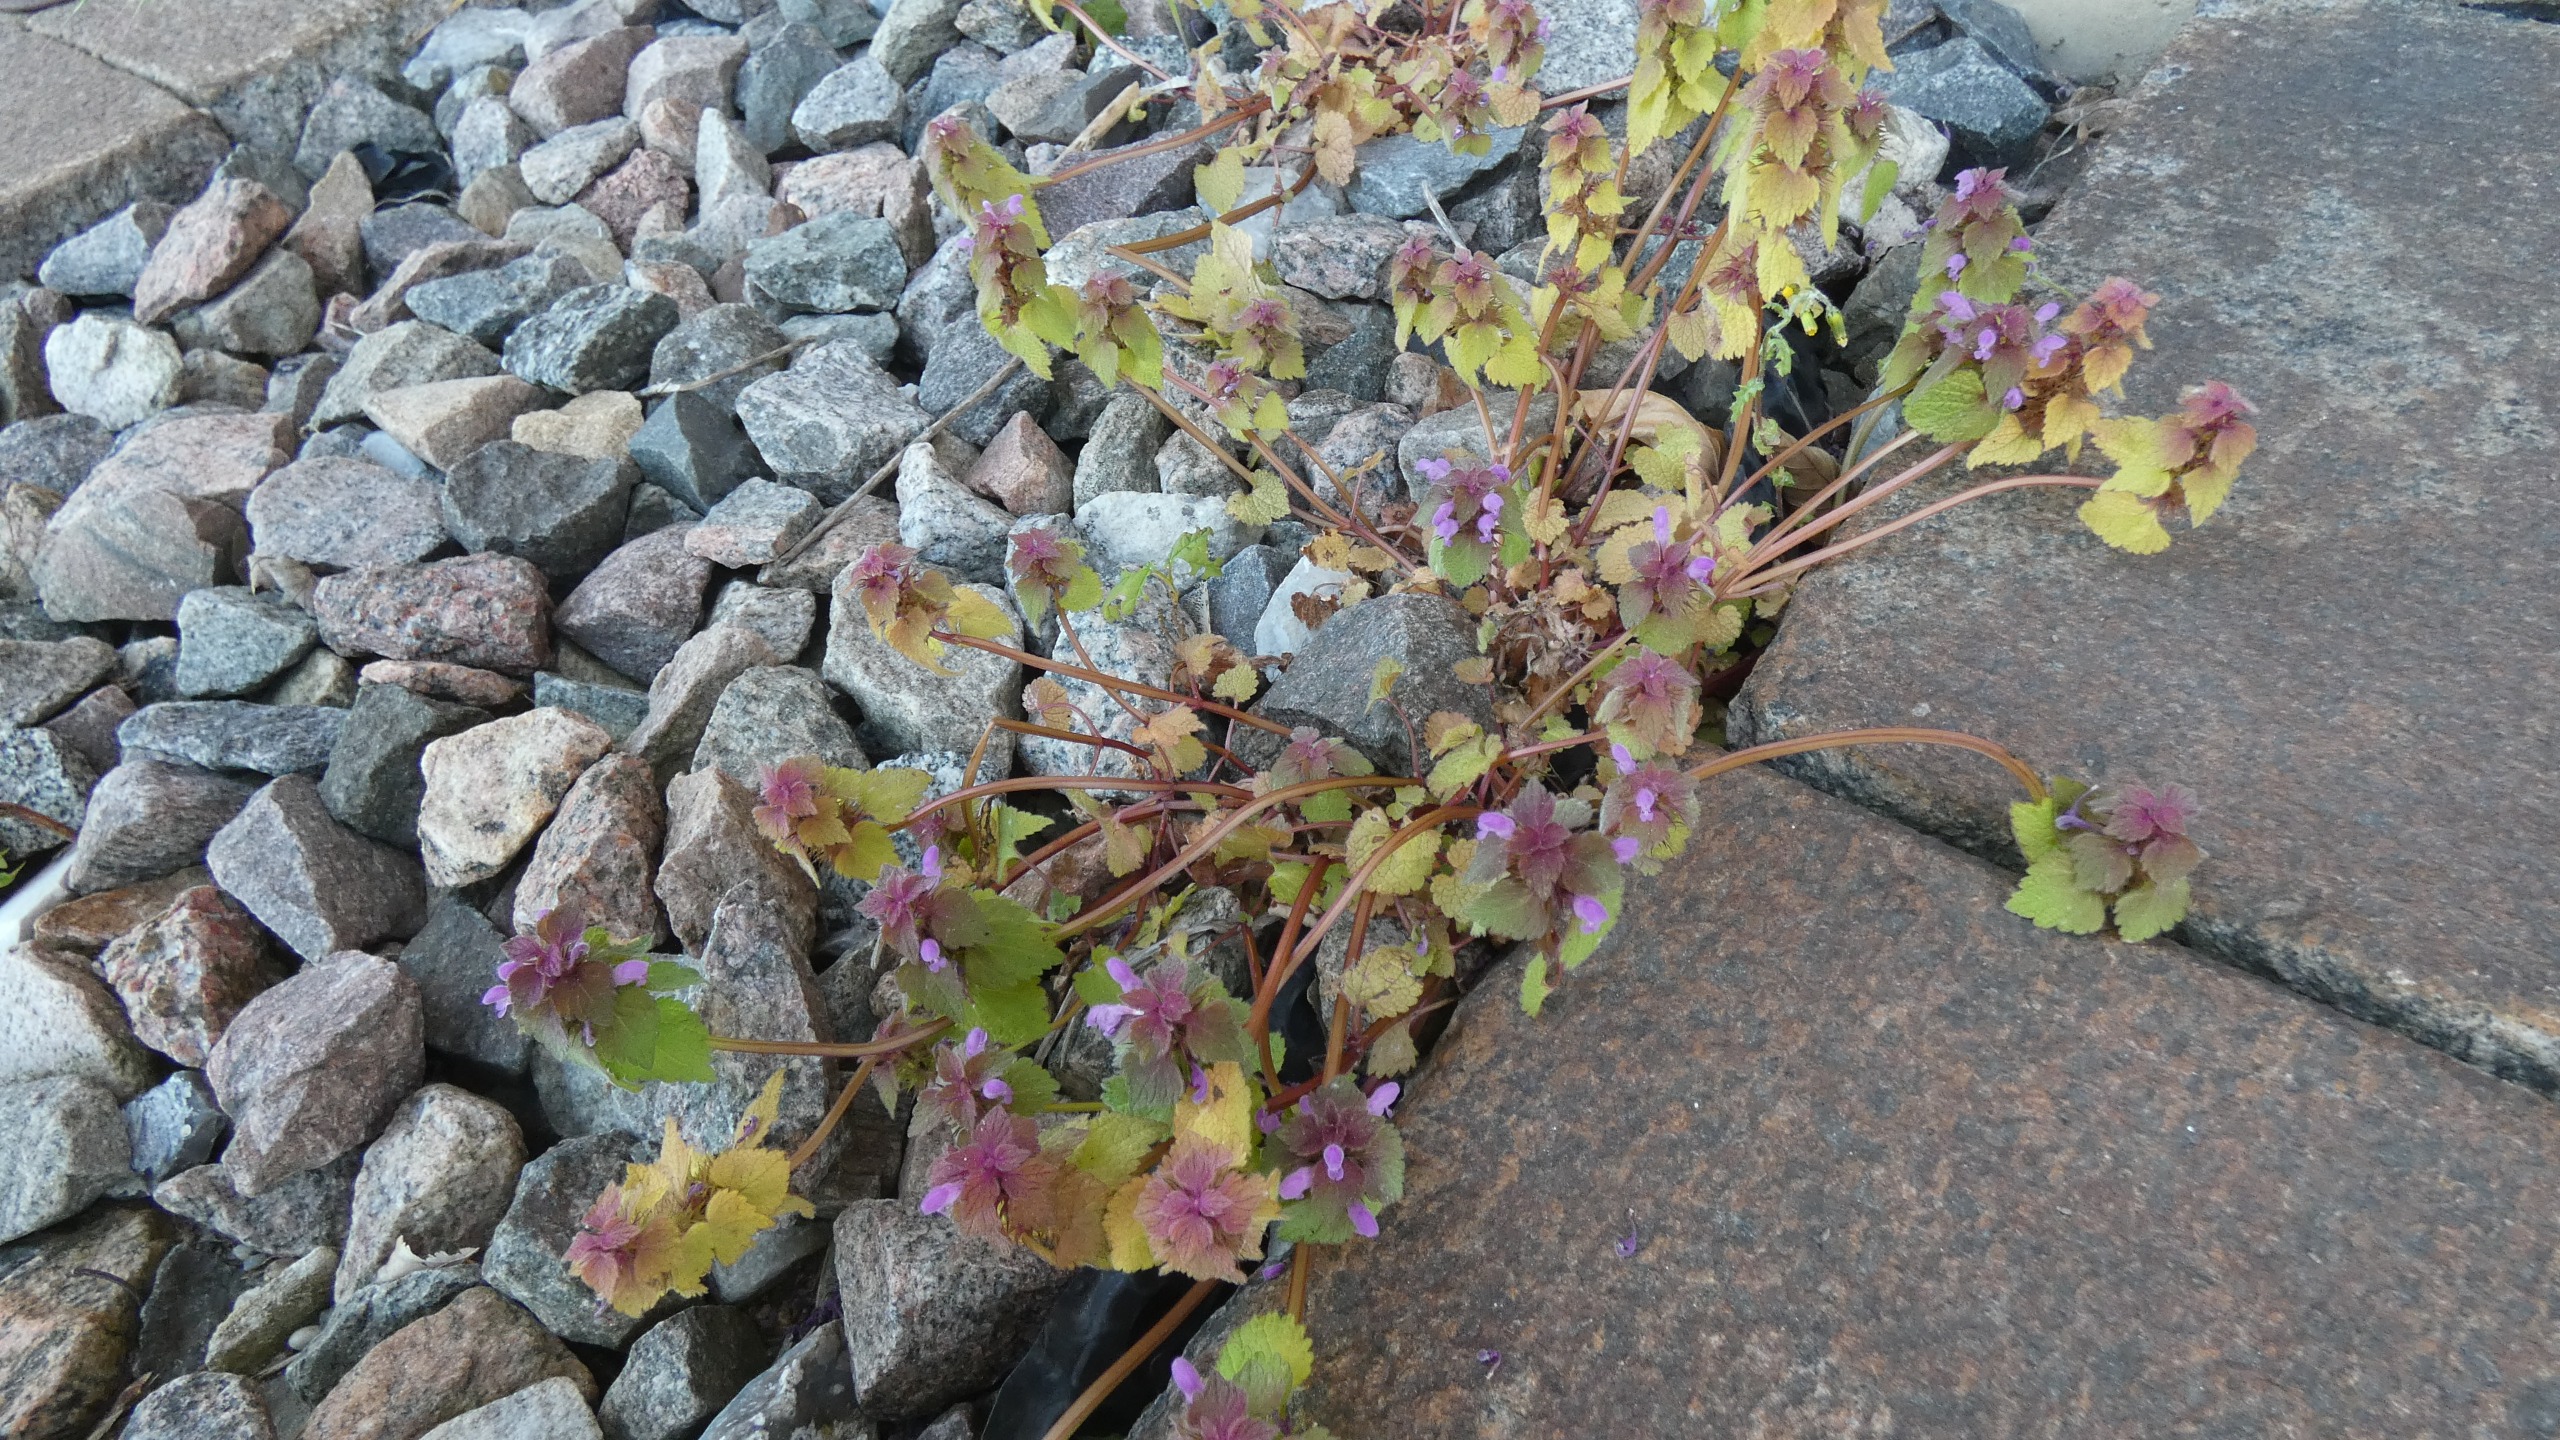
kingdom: Plantae
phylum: Tracheophyta
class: Magnoliopsida
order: Lamiales
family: Lamiaceae
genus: Lamium
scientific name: Lamium purpureum
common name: Rød tvetand
